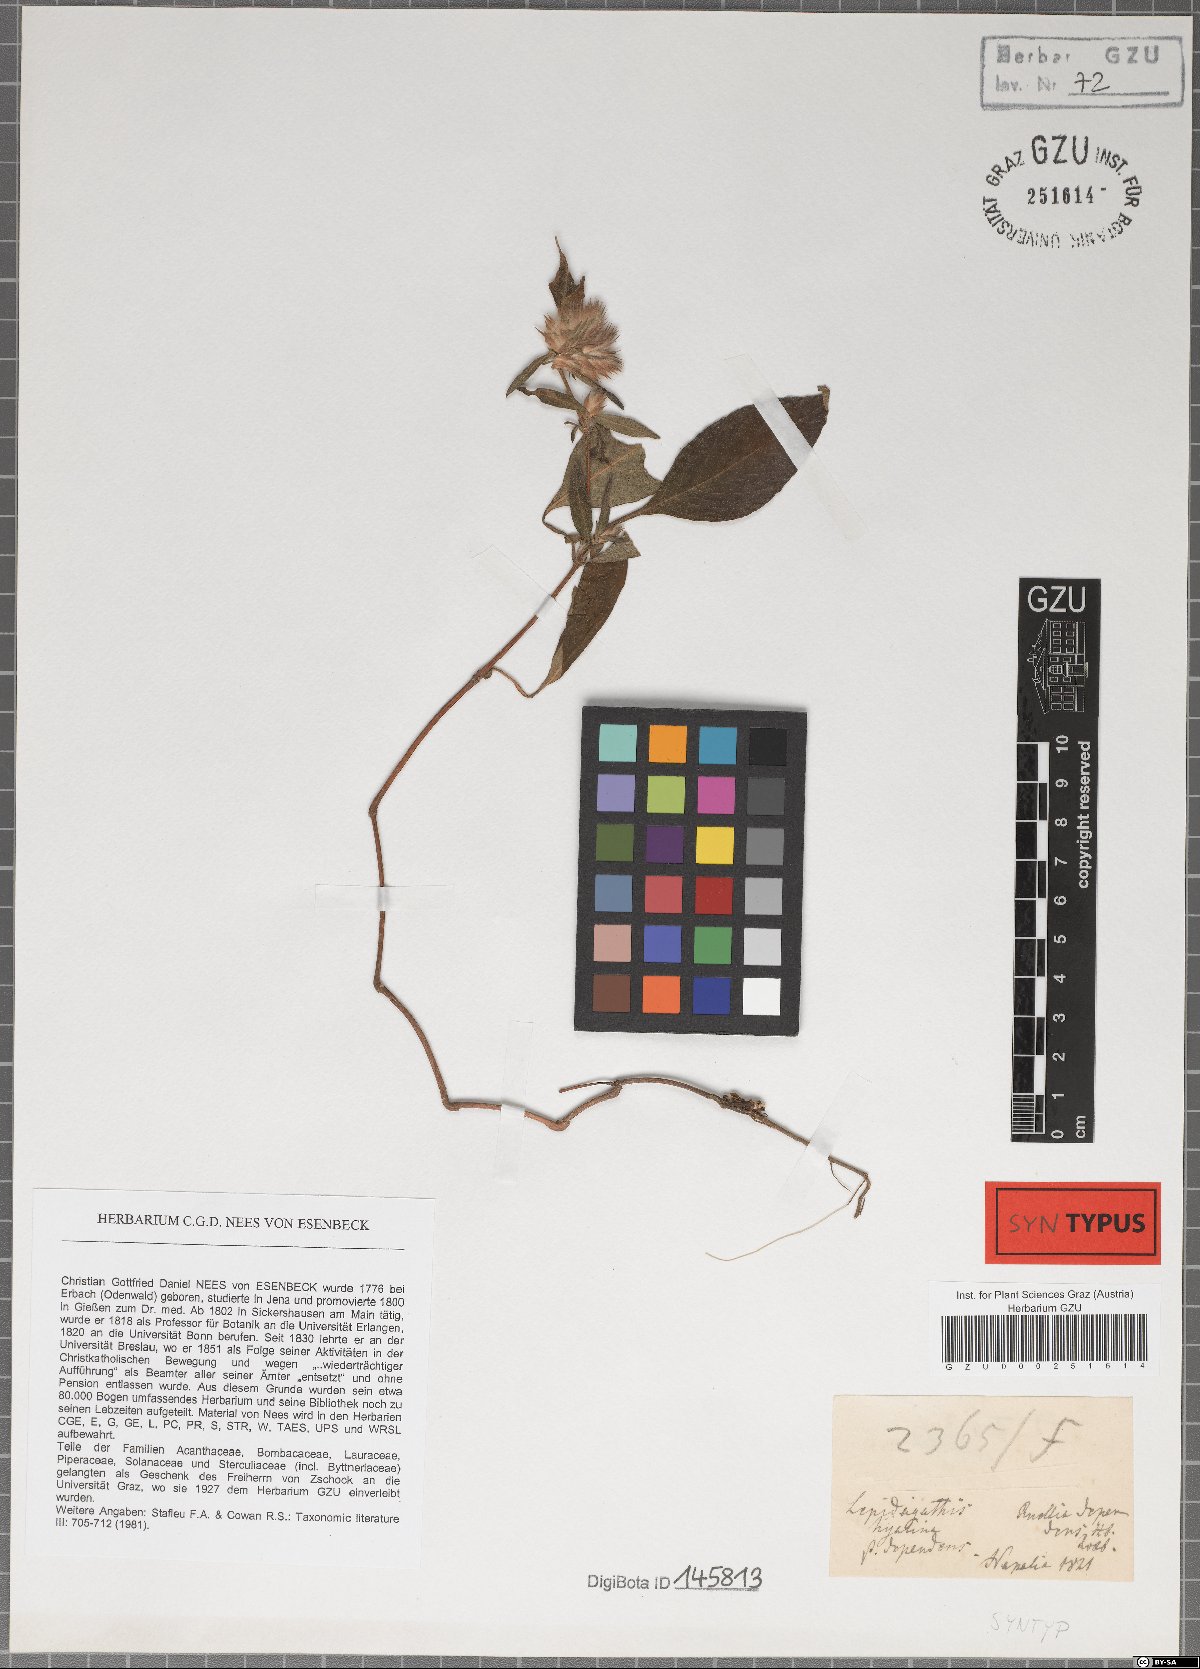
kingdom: Plantae
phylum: Tracheophyta
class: Magnoliopsida
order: Lamiales
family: Acanthaceae
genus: Lepidagathis
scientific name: Lepidagathis incurva
